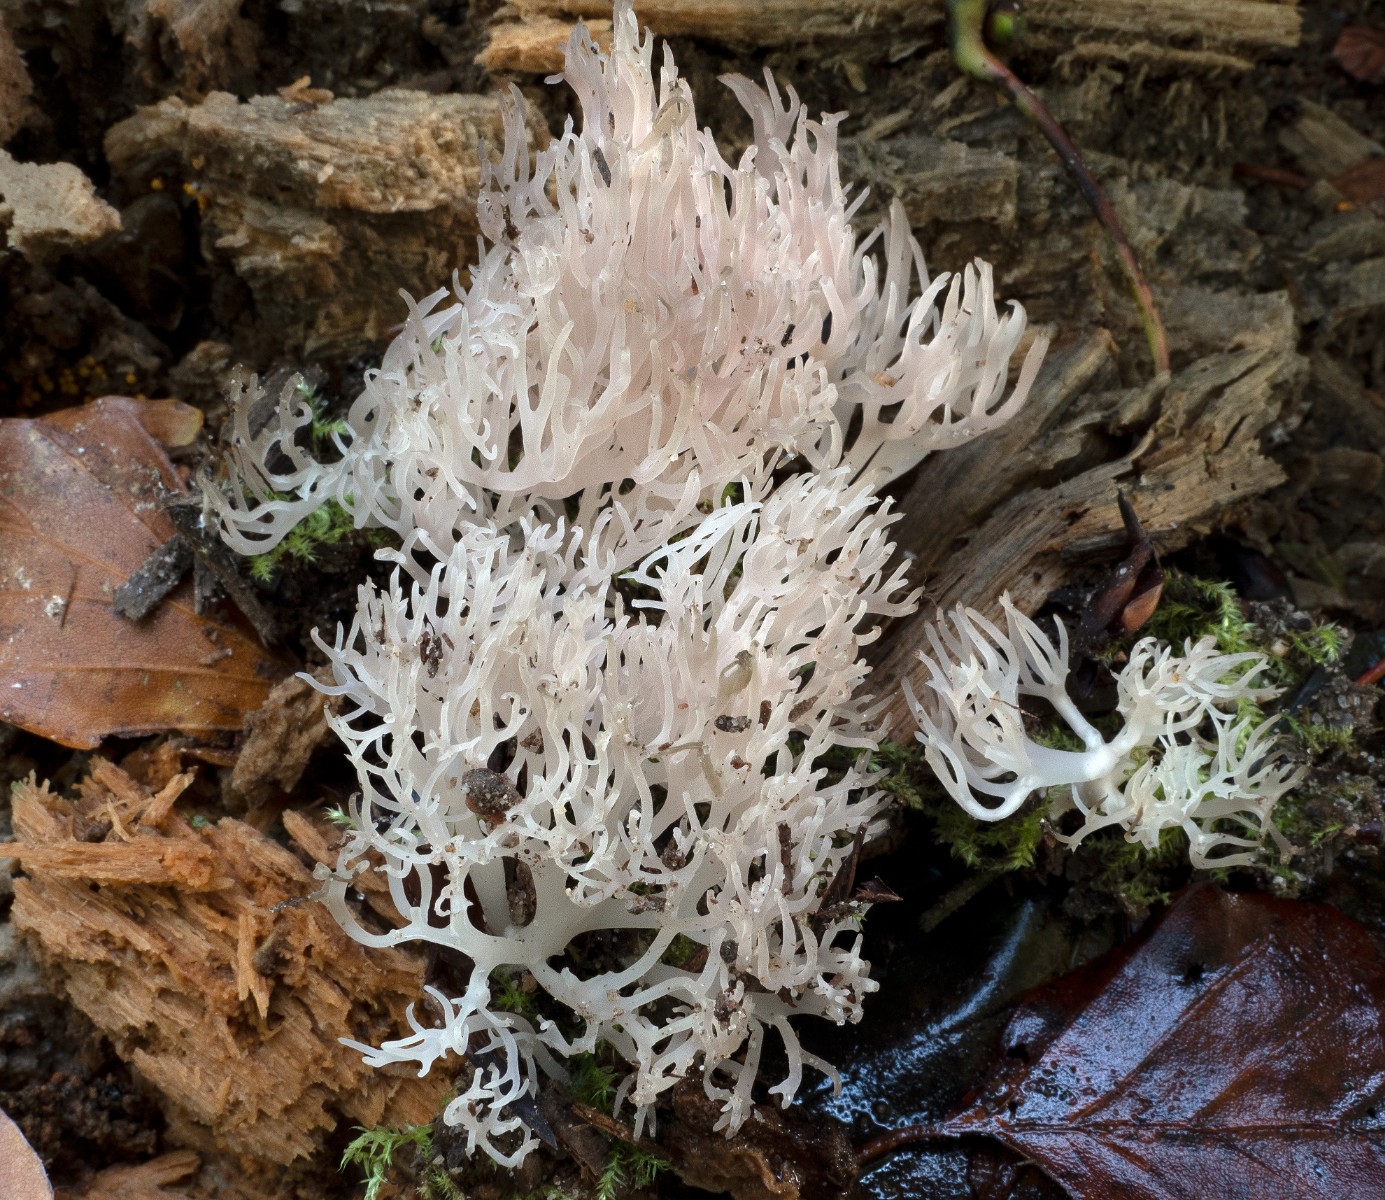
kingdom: Fungi
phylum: Basidiomycota
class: Agaricomycetes
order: Gomphales
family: Lentariaceae
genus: Lentaria
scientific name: Lentaria subcaulescens
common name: stor grenkølle
